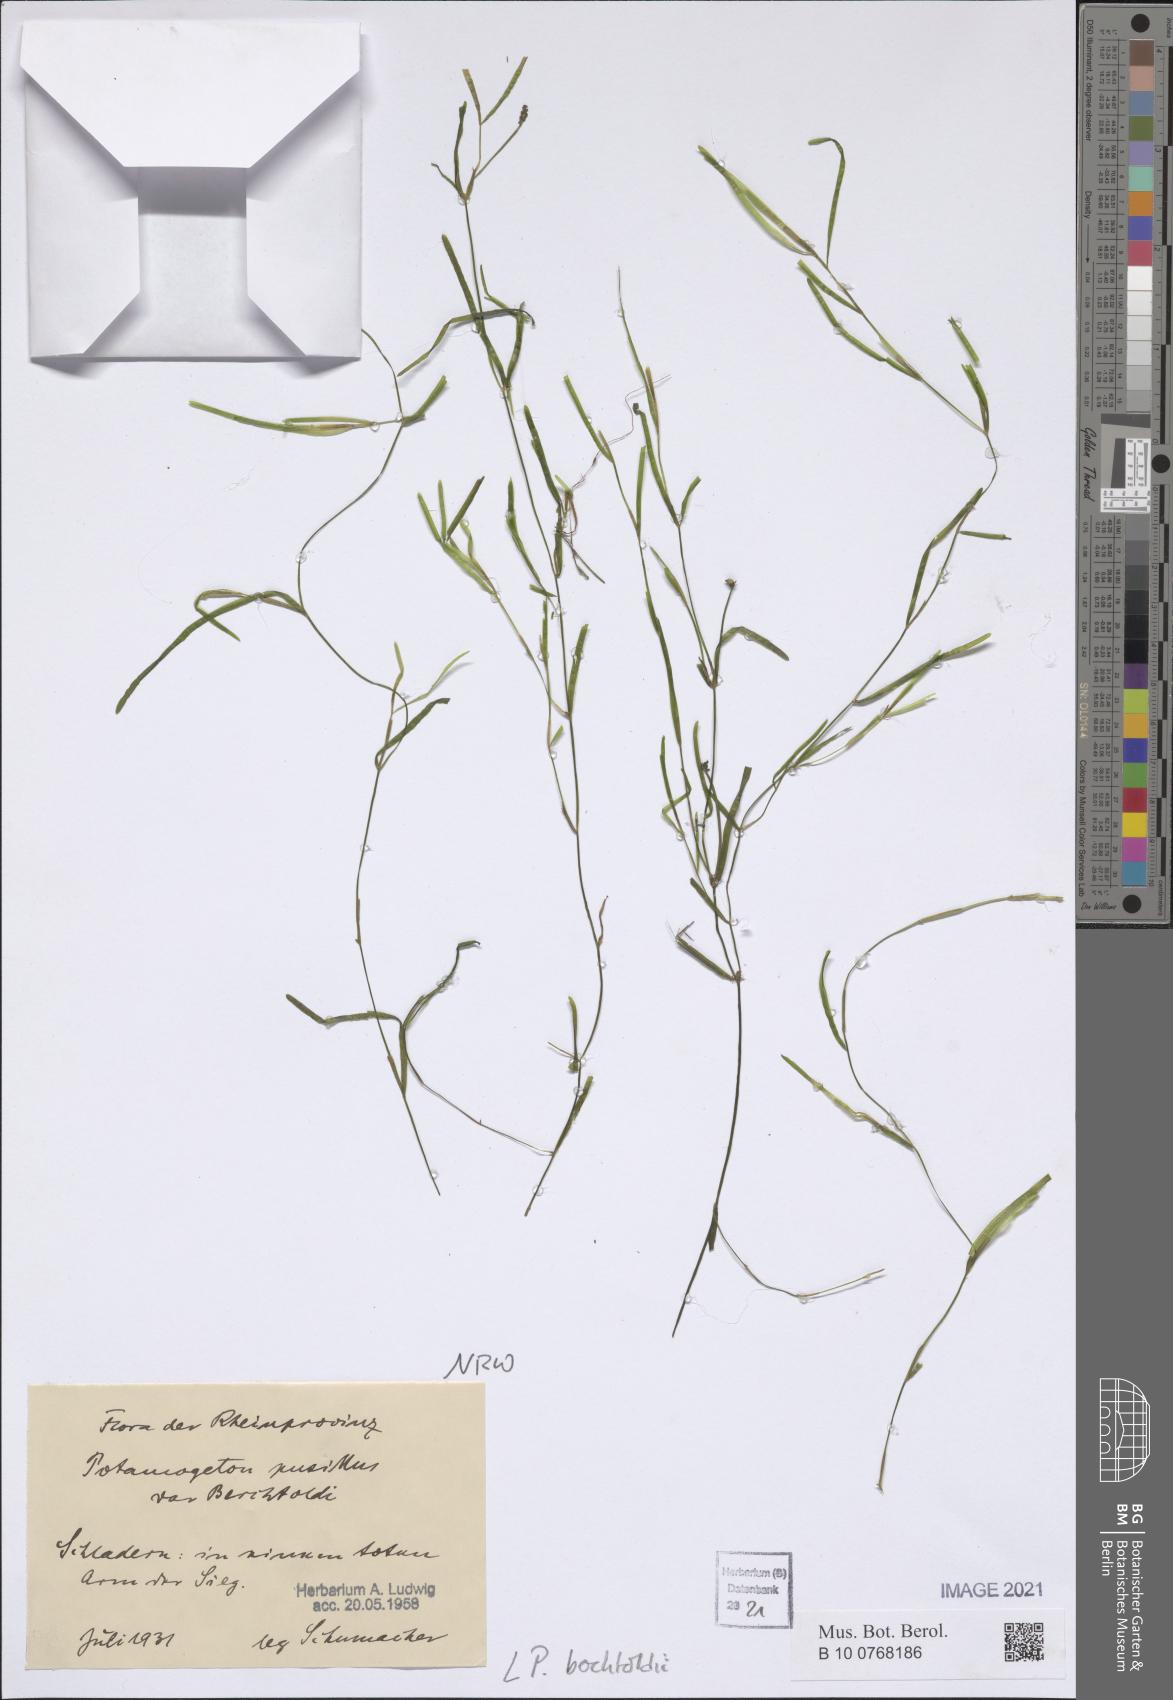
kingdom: Plantae
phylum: Tracheophyta
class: Liliopsida
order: Alismatales
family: Potamogetonaceae
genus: Potamogeton
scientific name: Potamogeton berchtoldii
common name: Small pondweed
